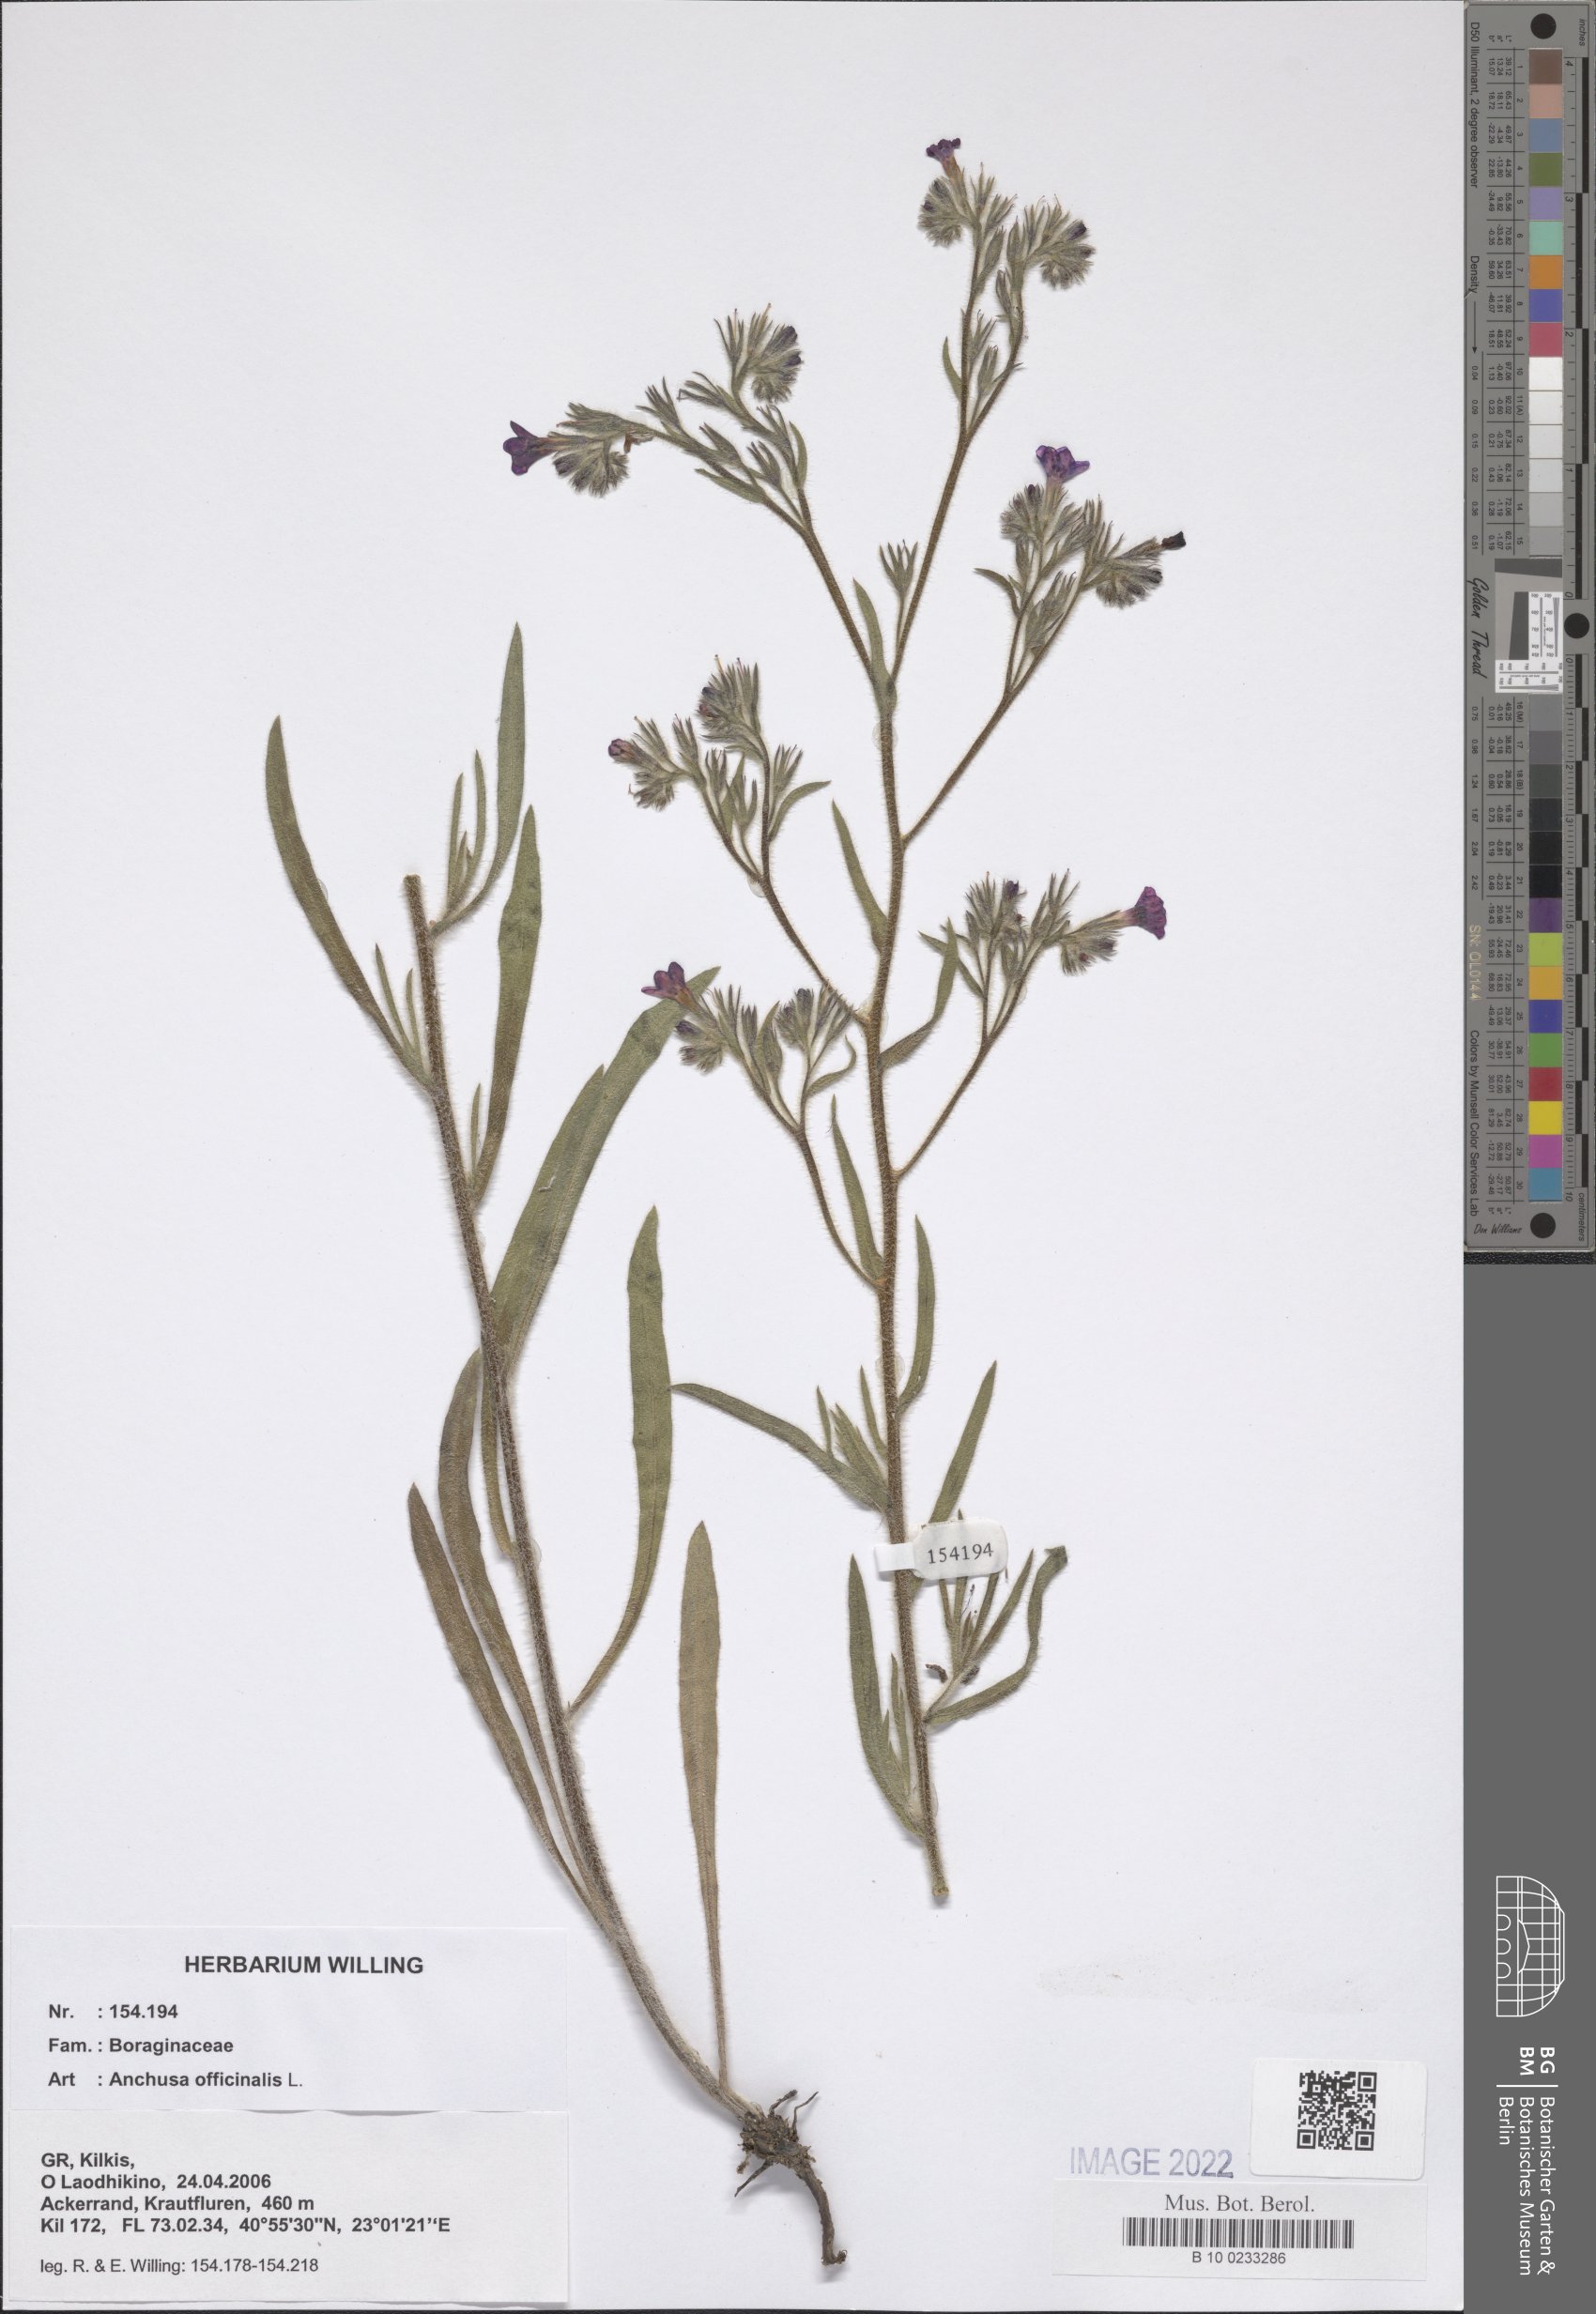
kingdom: Plantae
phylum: Tracheophyta
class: Magnoliopsida
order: Boraginales
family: Boraginaceae
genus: Anchusa
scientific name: Anchusa officinalis
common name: Alkanet
